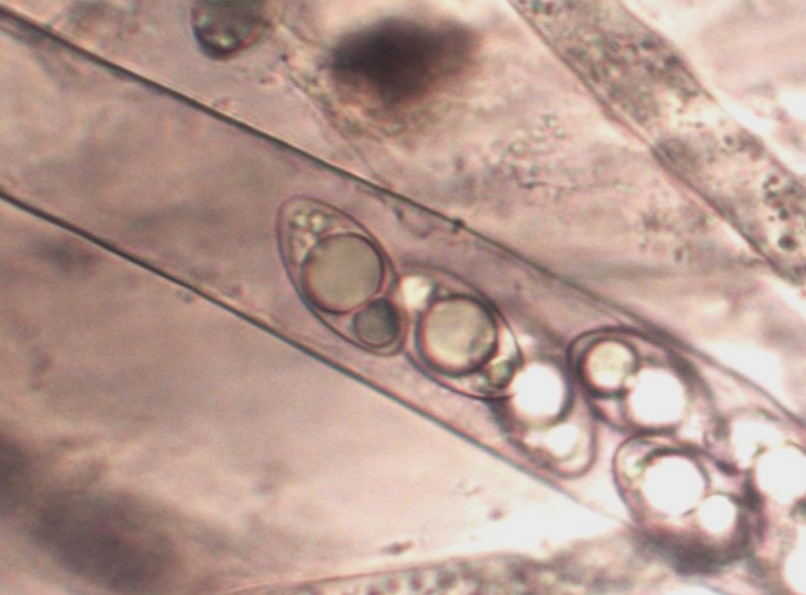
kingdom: Fungi
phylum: Ascomycota
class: Pezizomycetes
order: Pezizales
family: Helvellaceae
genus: Helvella
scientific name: Helvella macropus
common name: højstokket foldhat
